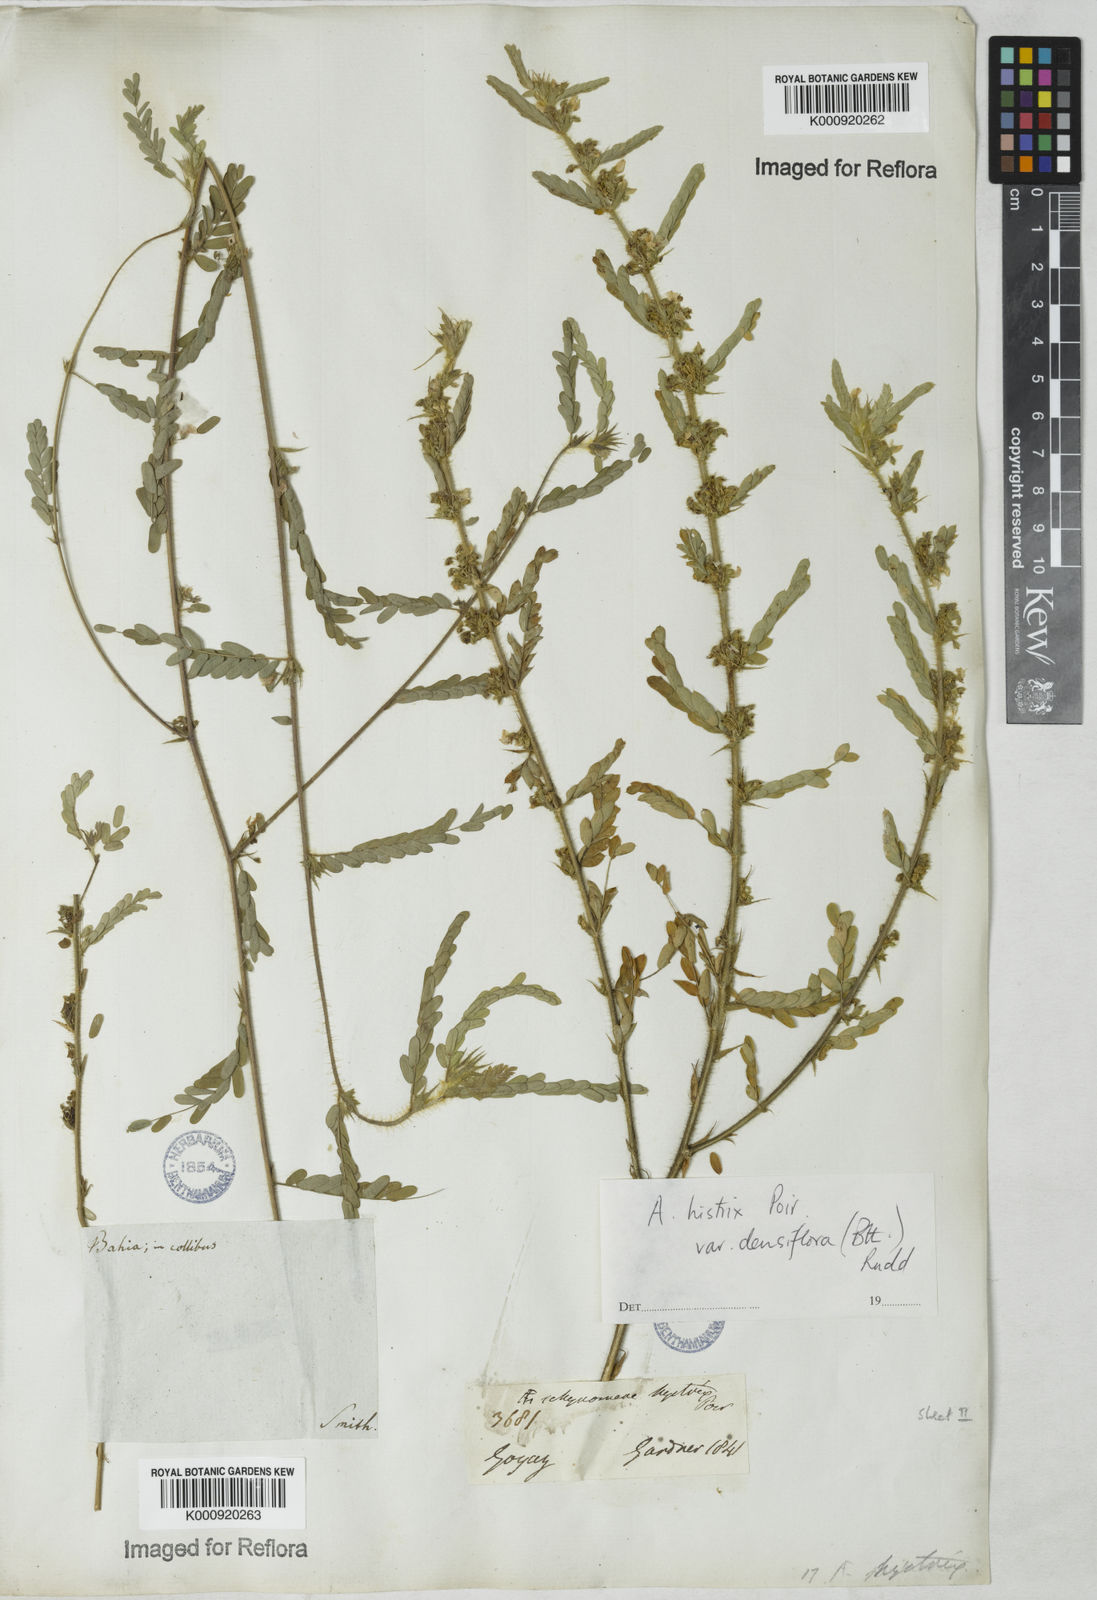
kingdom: Plantae
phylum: Tracheophyta
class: Magnoliopsida
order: Fabales
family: Fabaceae
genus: Ctenodon
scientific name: Ctenodon histrix
